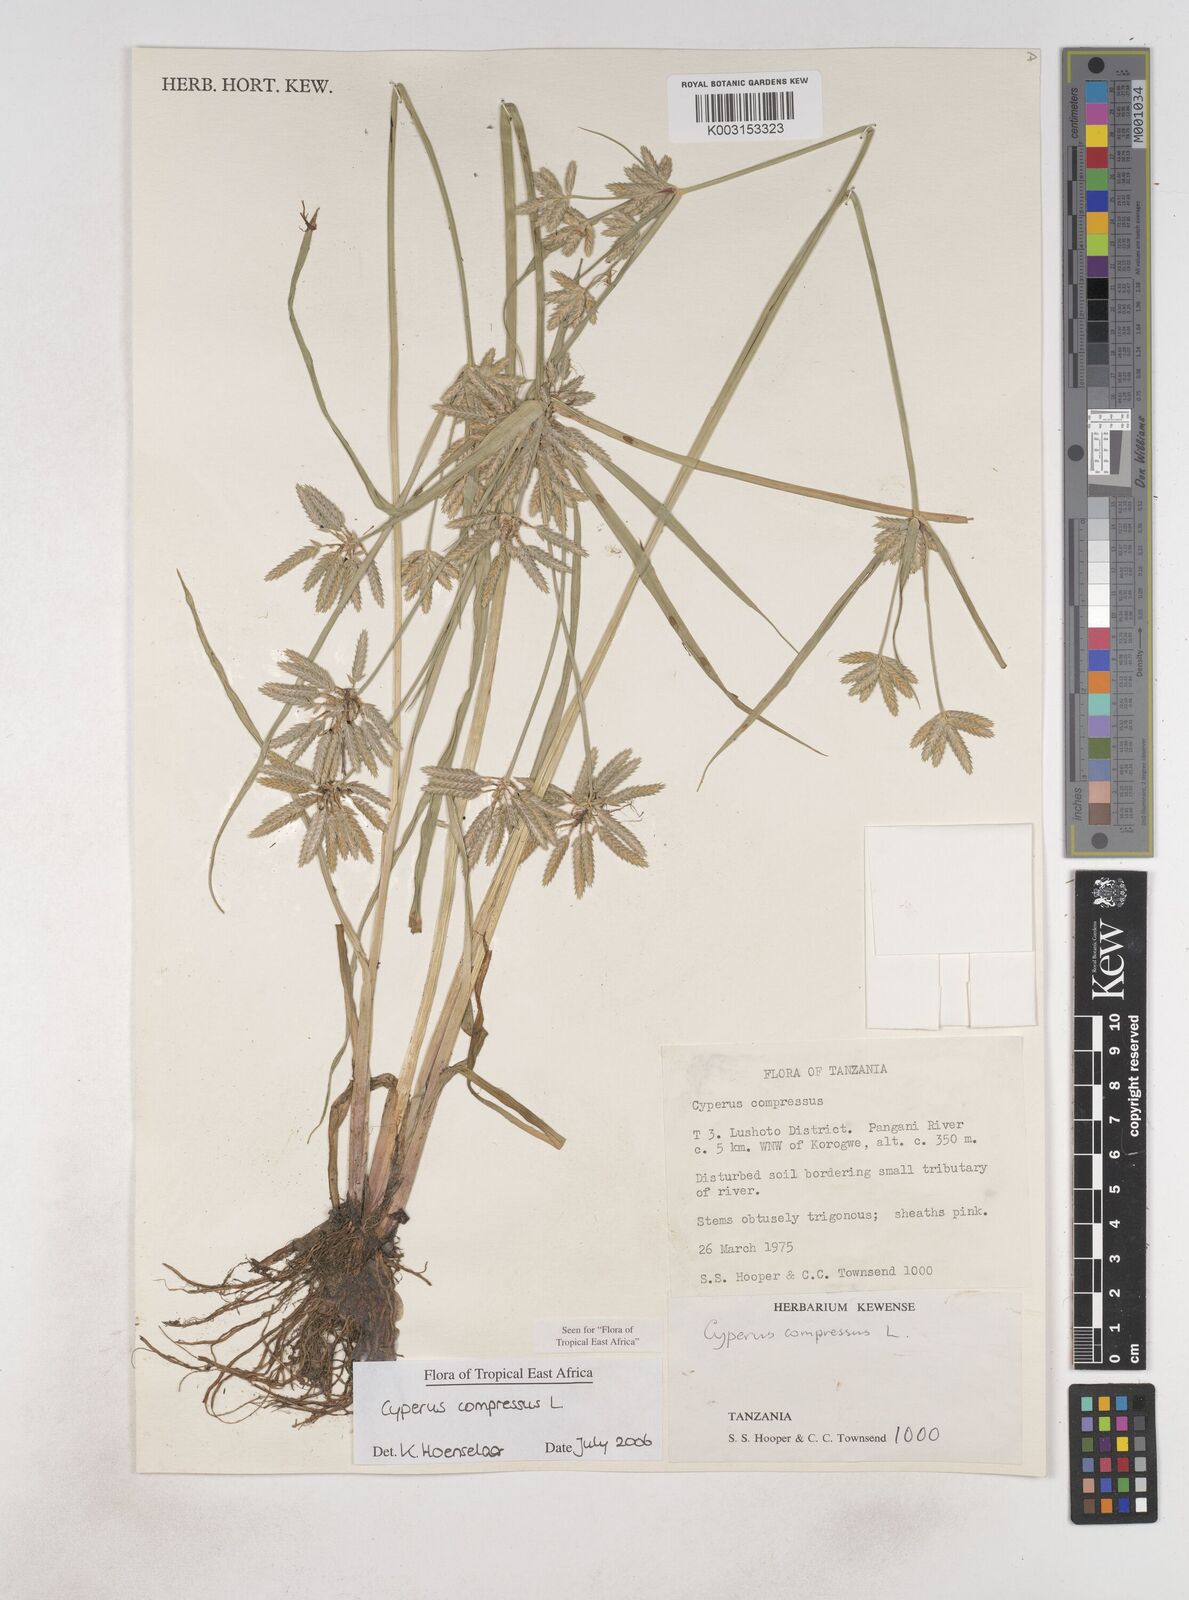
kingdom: Plantae
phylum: Tracheophyta
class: Liliopsida
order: Poales
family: Cyperaceae
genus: Cyperus
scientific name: Cyperus compressus
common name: Poorland flatsedge
